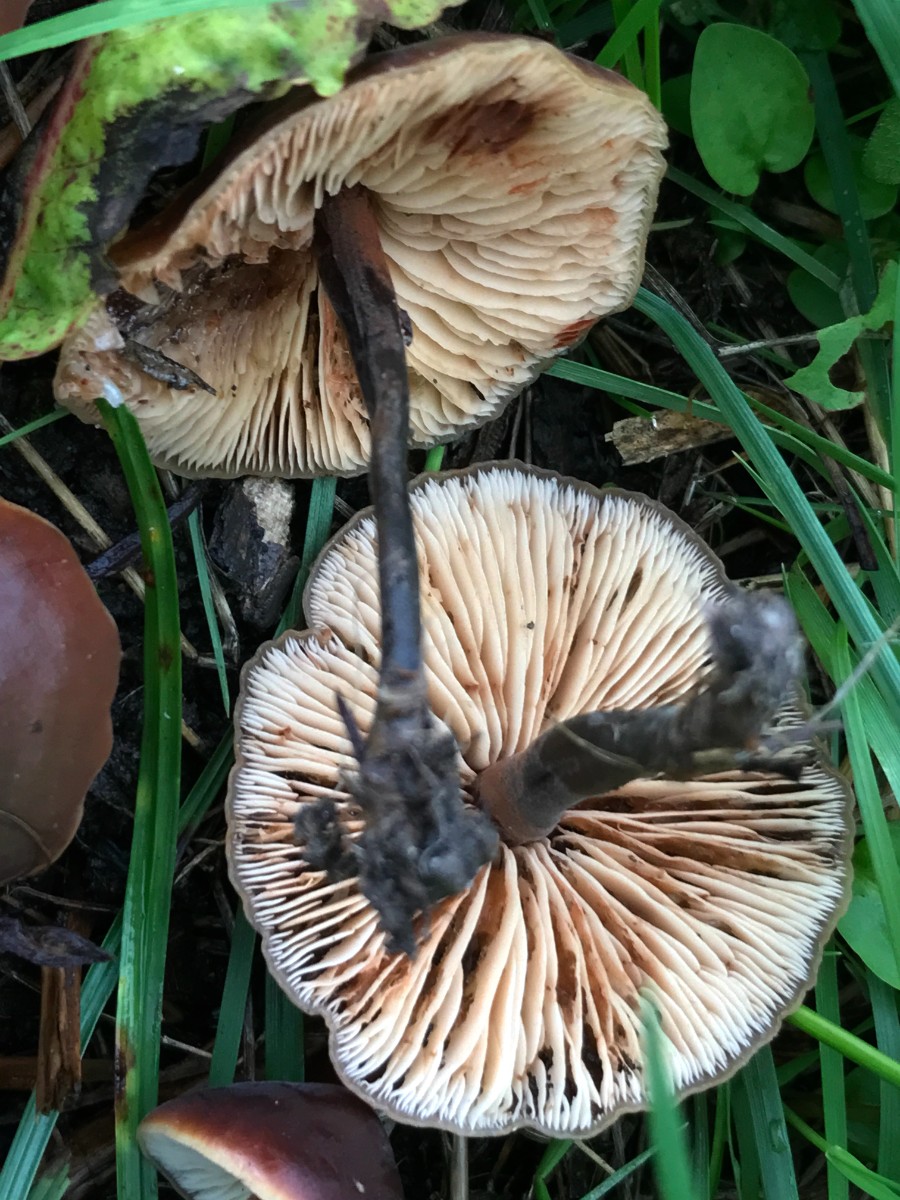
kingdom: Fungi
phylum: Basidiomycota
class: Agaricomycetes
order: Agaricales
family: Macrocystidiaceae
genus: Macrocystidia
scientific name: Macrocystidia cucumis
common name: agurkehat
